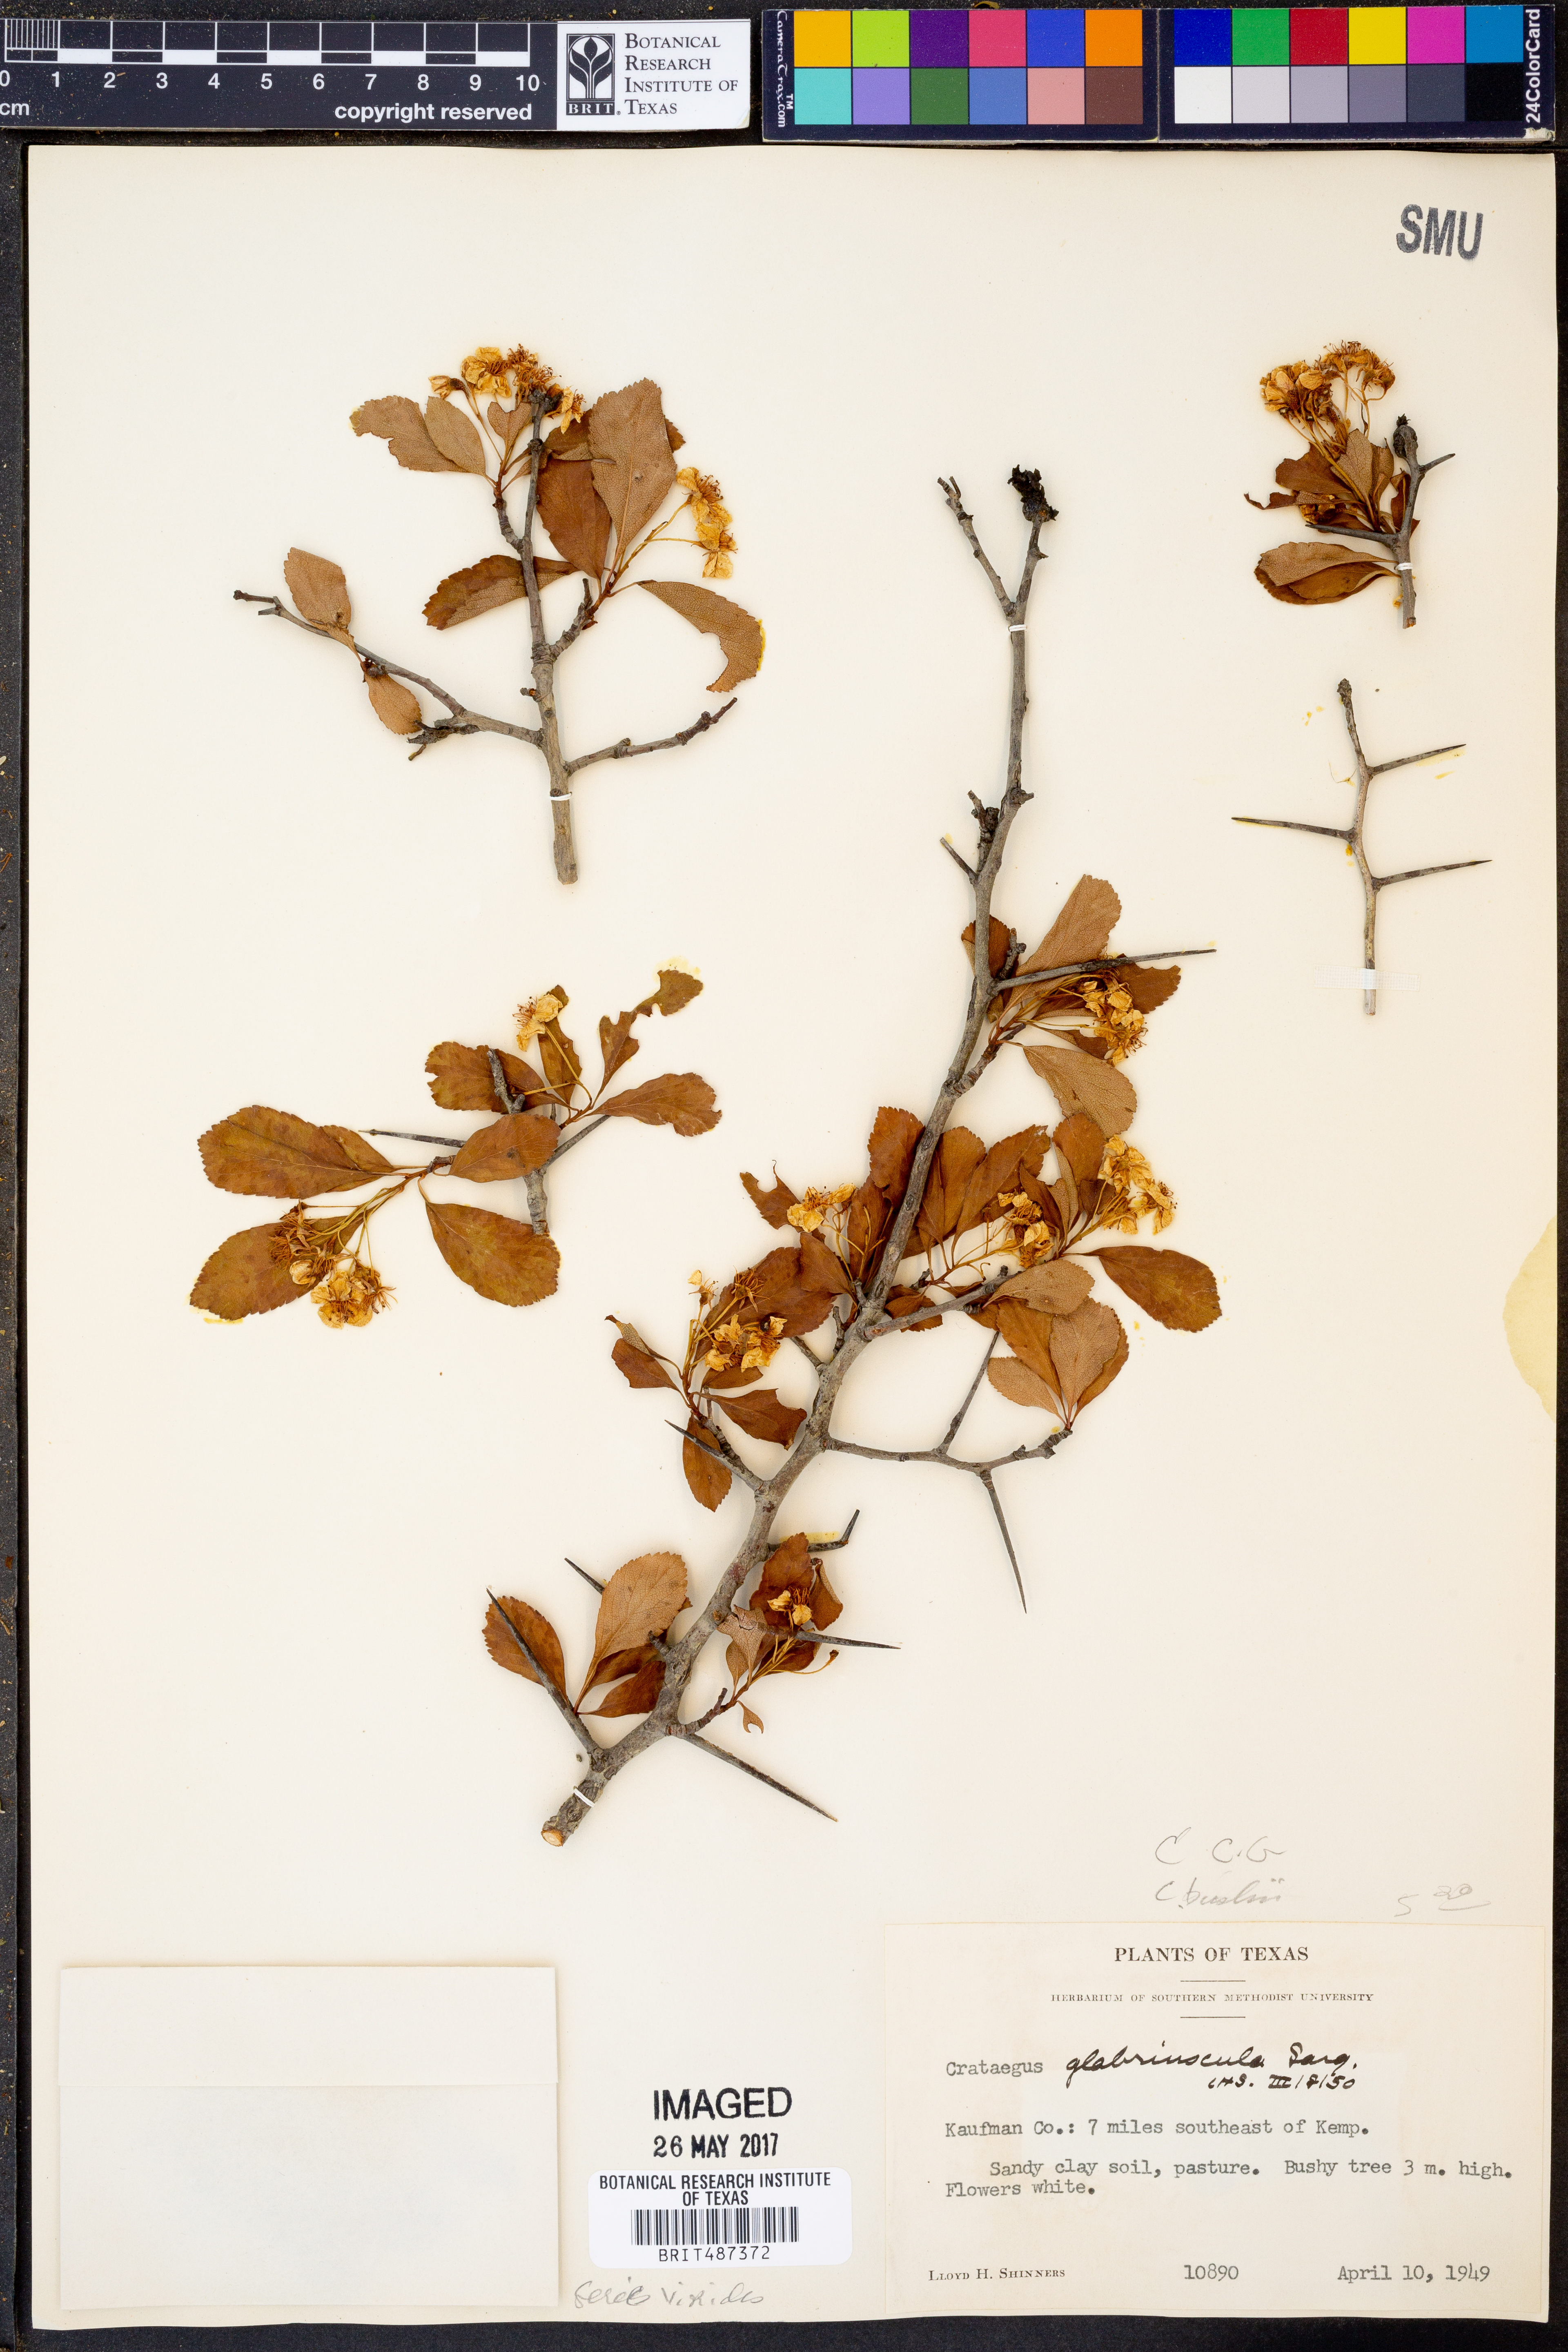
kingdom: Plantae
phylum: Tracheophyta
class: Magnoliopsida
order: Rosales
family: Rosaceae
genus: Crataegus
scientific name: Crataegus crus-galli
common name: Cockspurthorn
